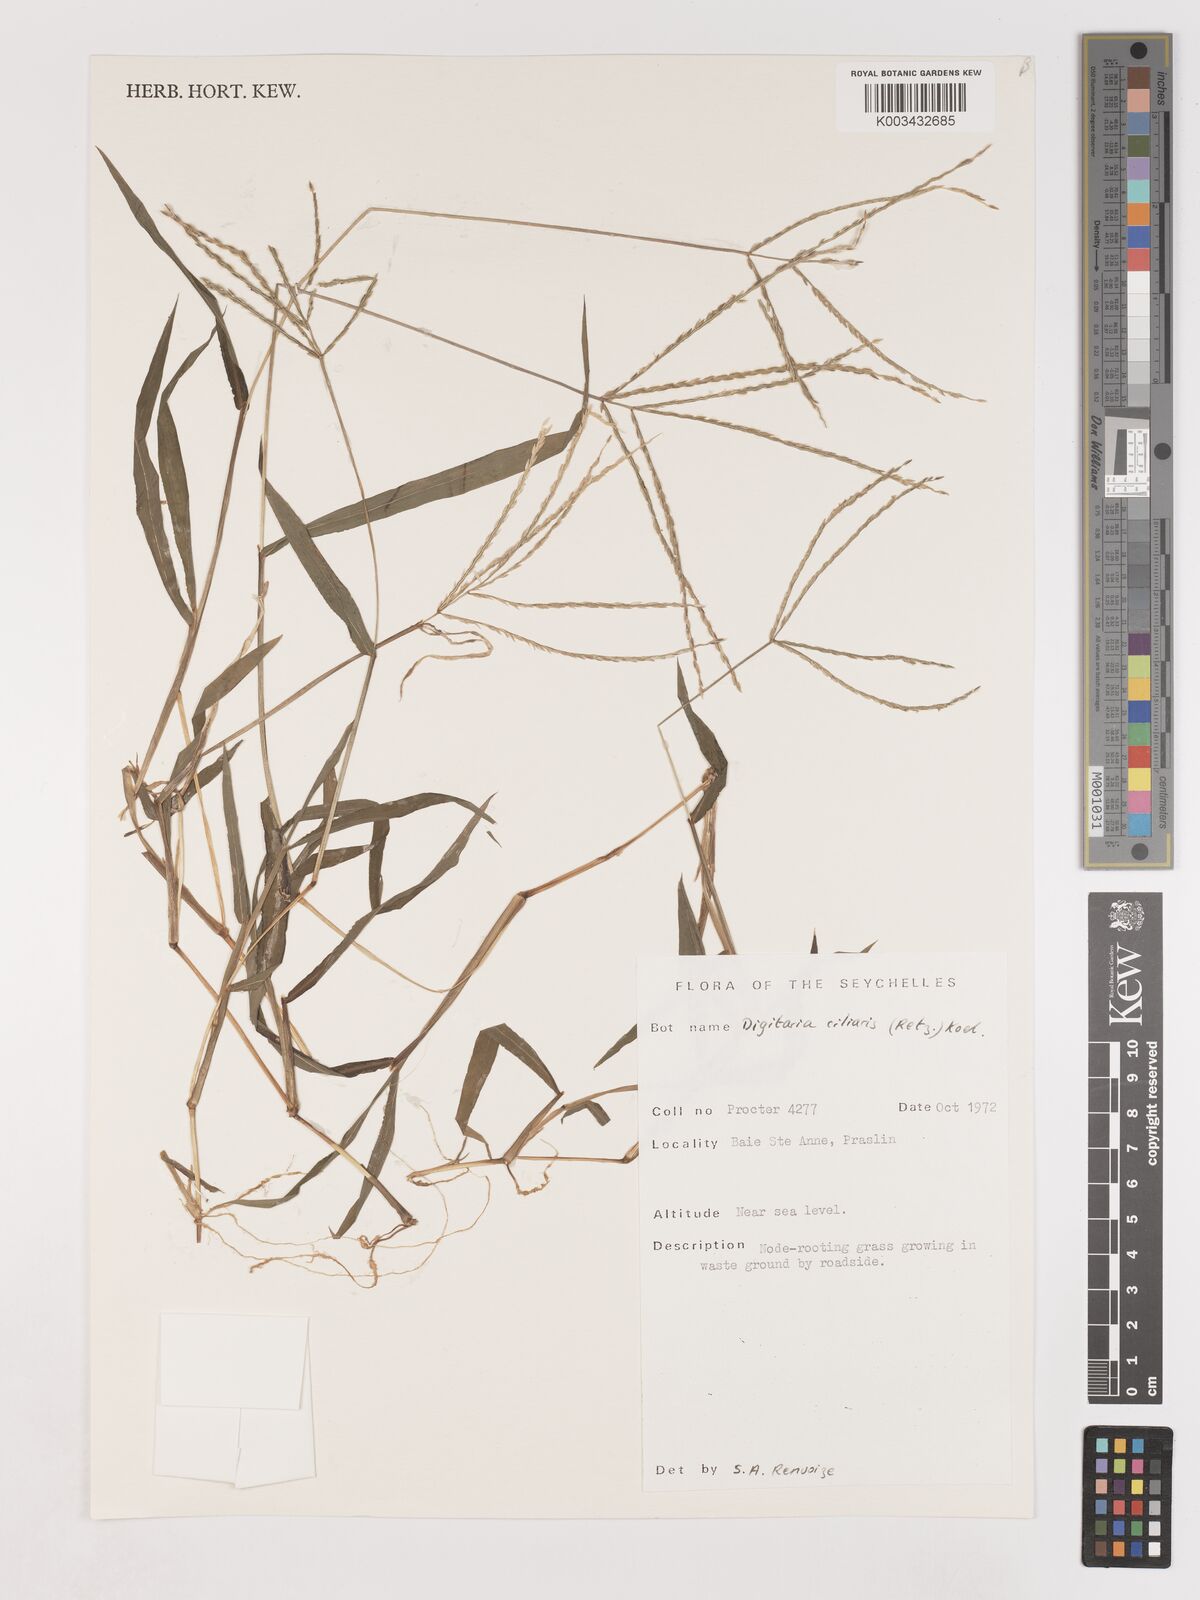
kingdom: Plantae
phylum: Tracheophyta
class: Liliopsida
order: Poales
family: Poaceae
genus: Digitaria
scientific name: Digitaria ciliaris
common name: Tropical finger-grass
